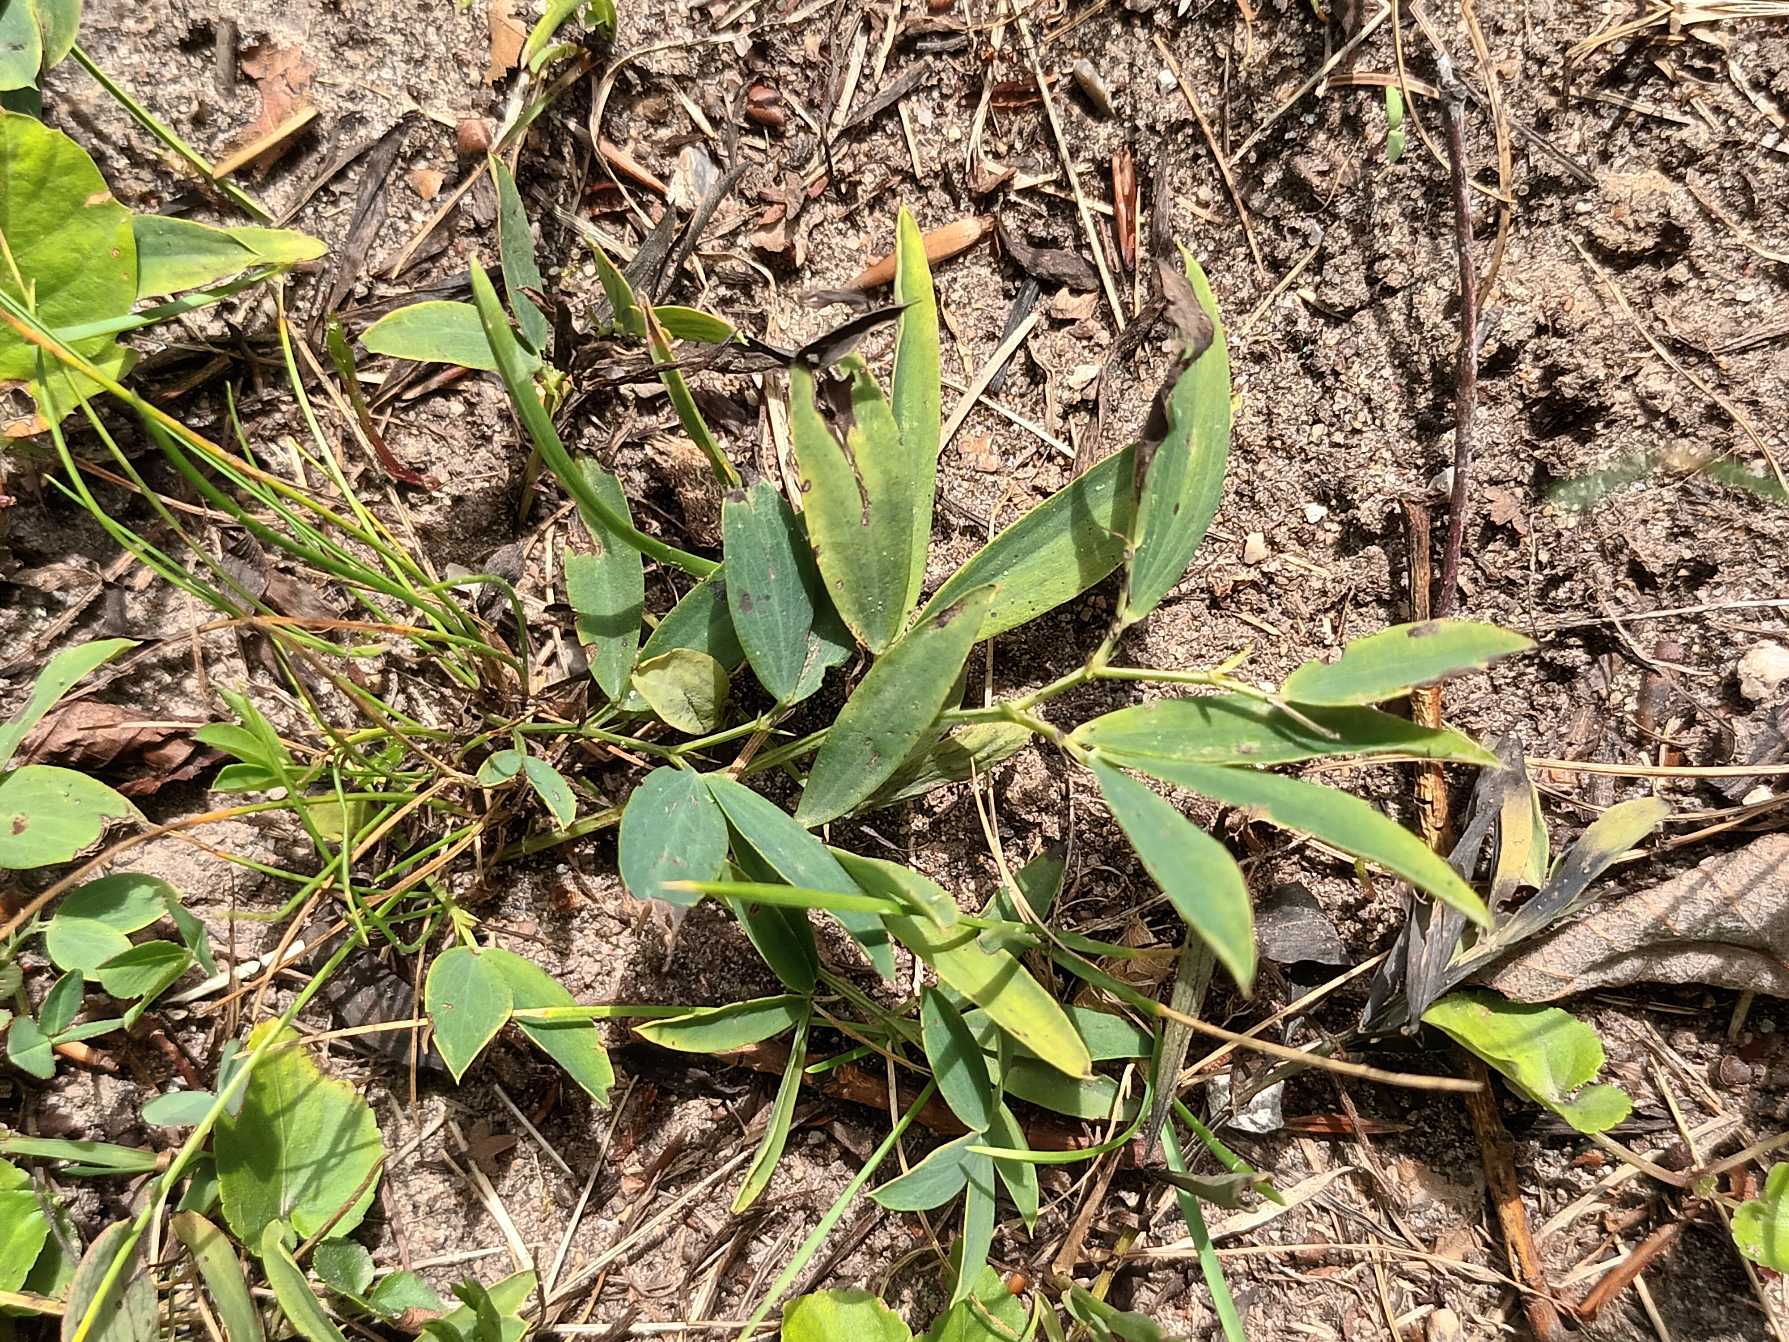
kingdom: Plantae
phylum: Tracheophyta
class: Magnoliopsida
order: Fabales
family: Fabaceae
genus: Lathyrus
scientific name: Lathyrus linifolius
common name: Krat-fladbælg
